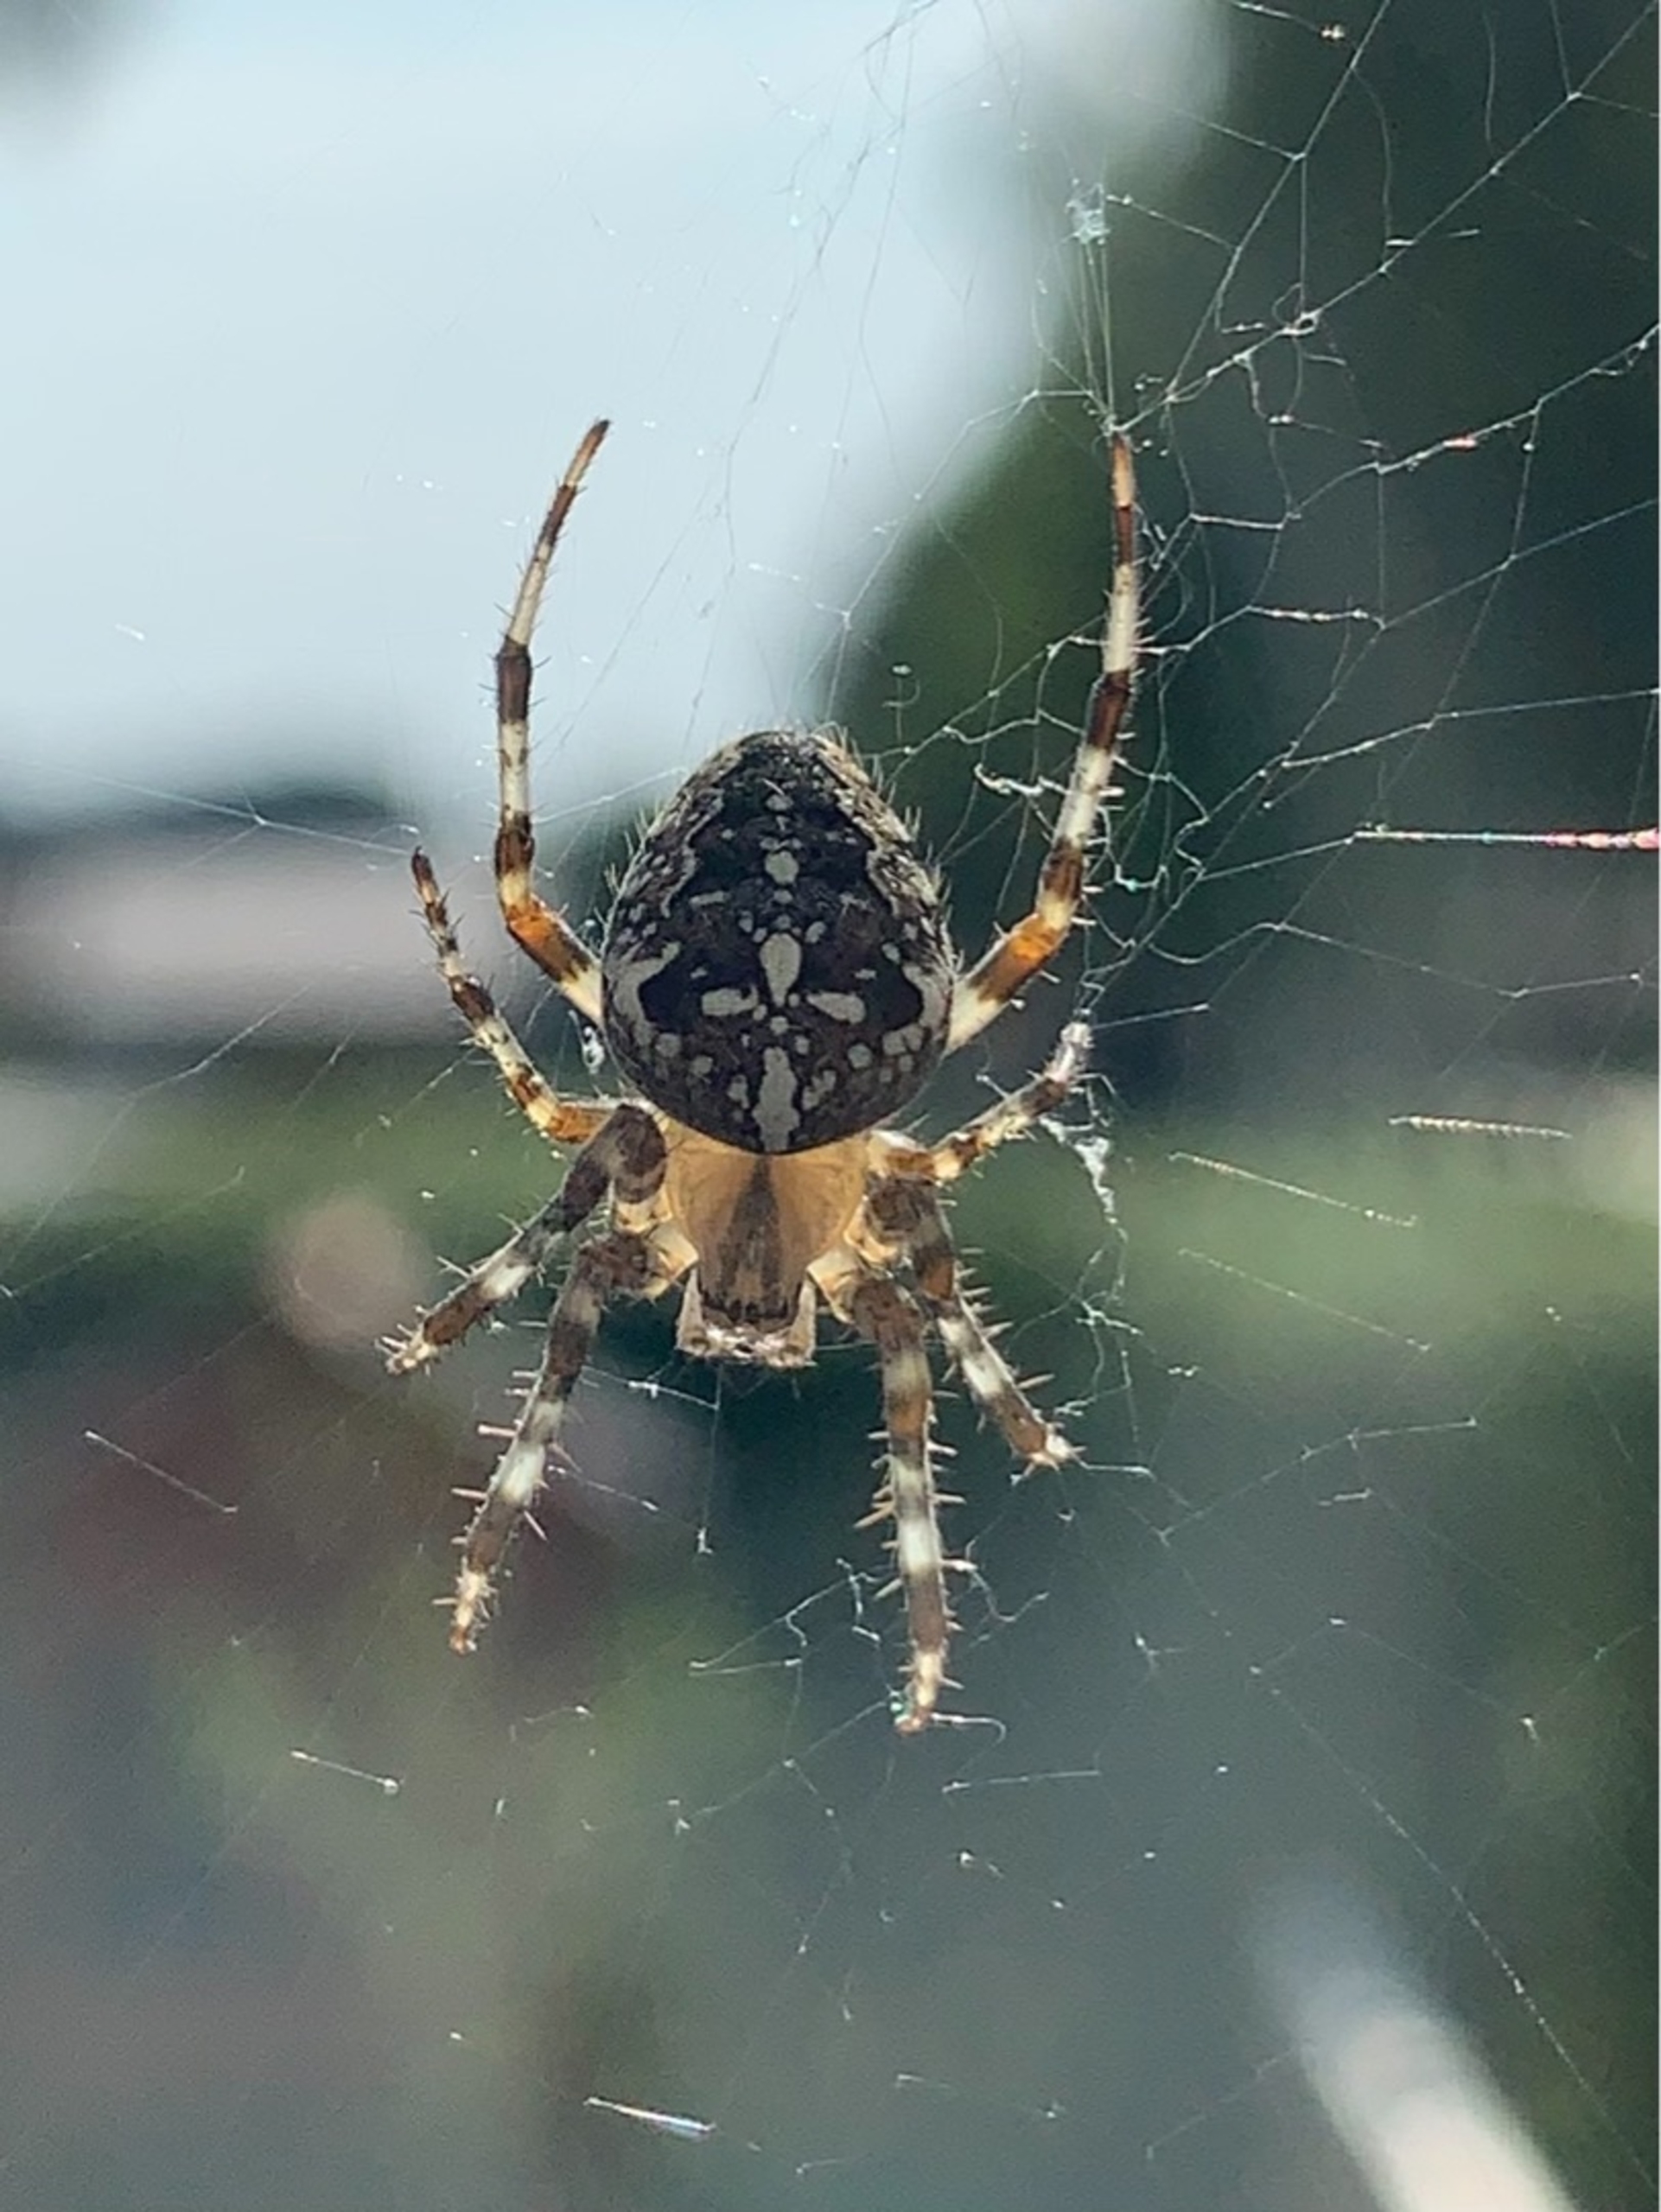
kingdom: Animalia
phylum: Arthropoda
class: Arachnida
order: Araneae
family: Araneidae
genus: Araneus
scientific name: Araneus diadematus
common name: Korsedderkop
